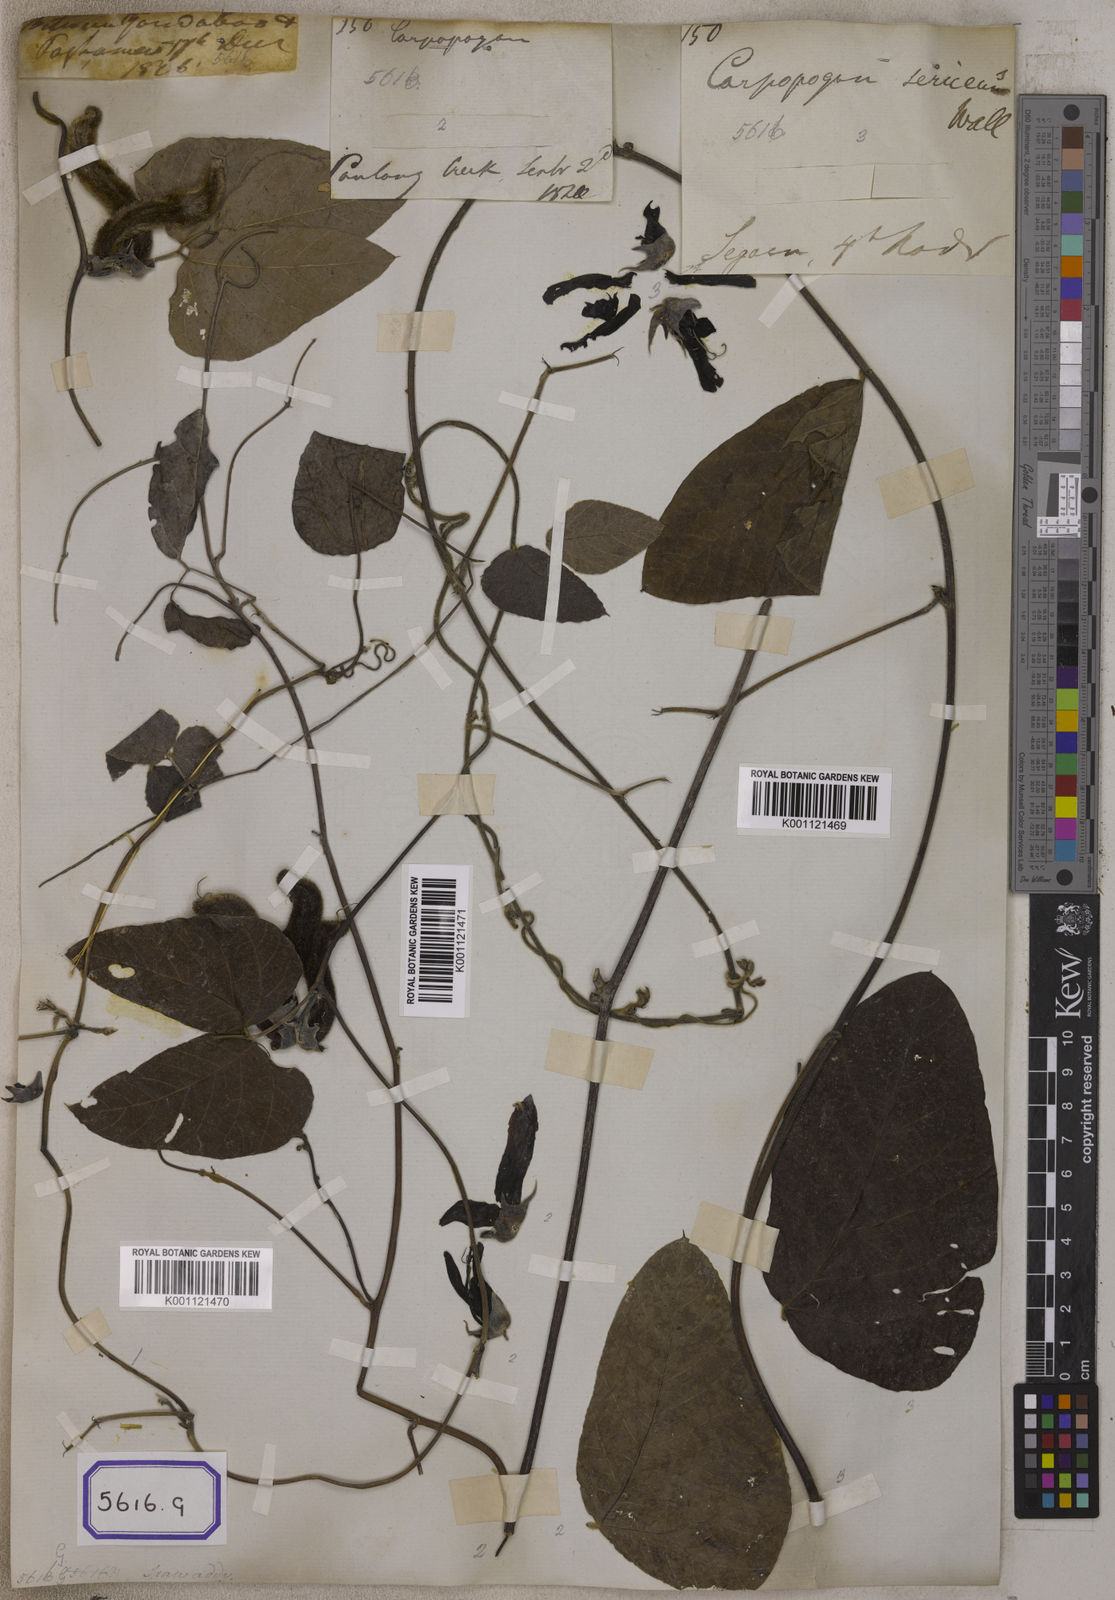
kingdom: Plantae
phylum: Tracheophyta
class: Magnoliopsida
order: Fabales
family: Fabaceae
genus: Mucuna
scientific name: Mucuna pruriens
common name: Cow-itch
